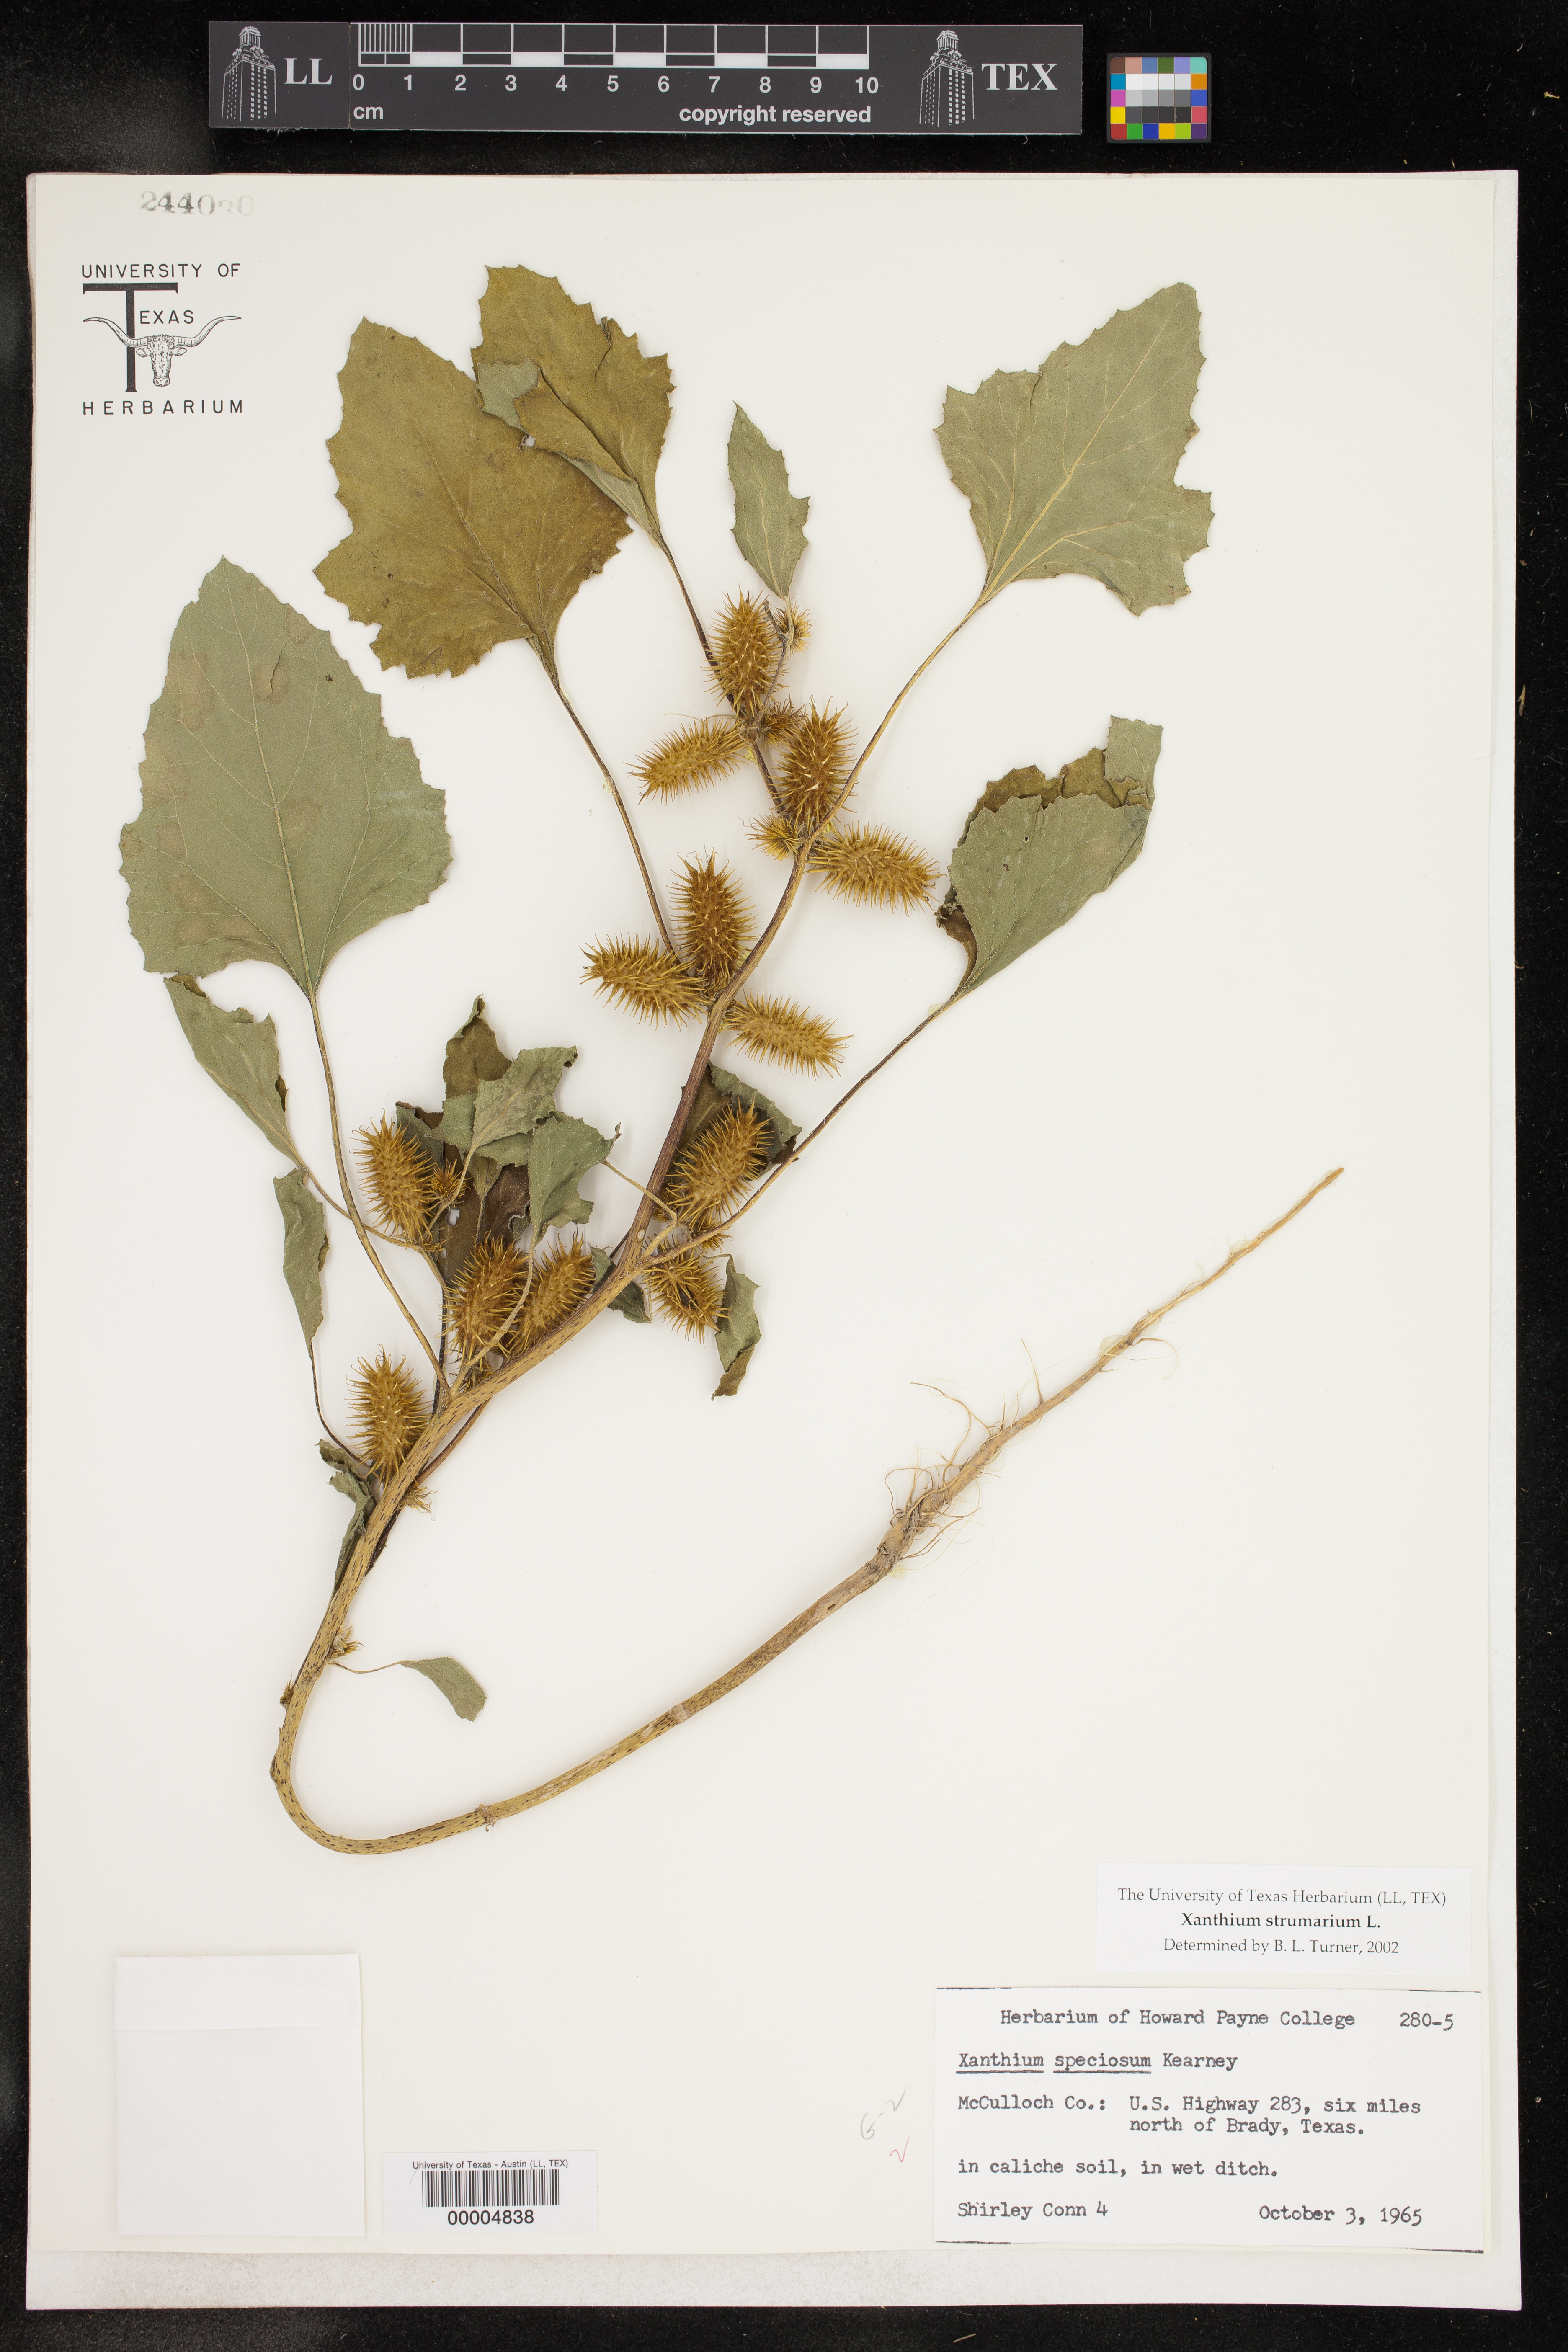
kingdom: Plantae
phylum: Tracheophyta
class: Magnoliopsida
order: Asterales
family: Asteraceae
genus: Xanthium
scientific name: Xanthium strumarium
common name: Rough cocklebur
